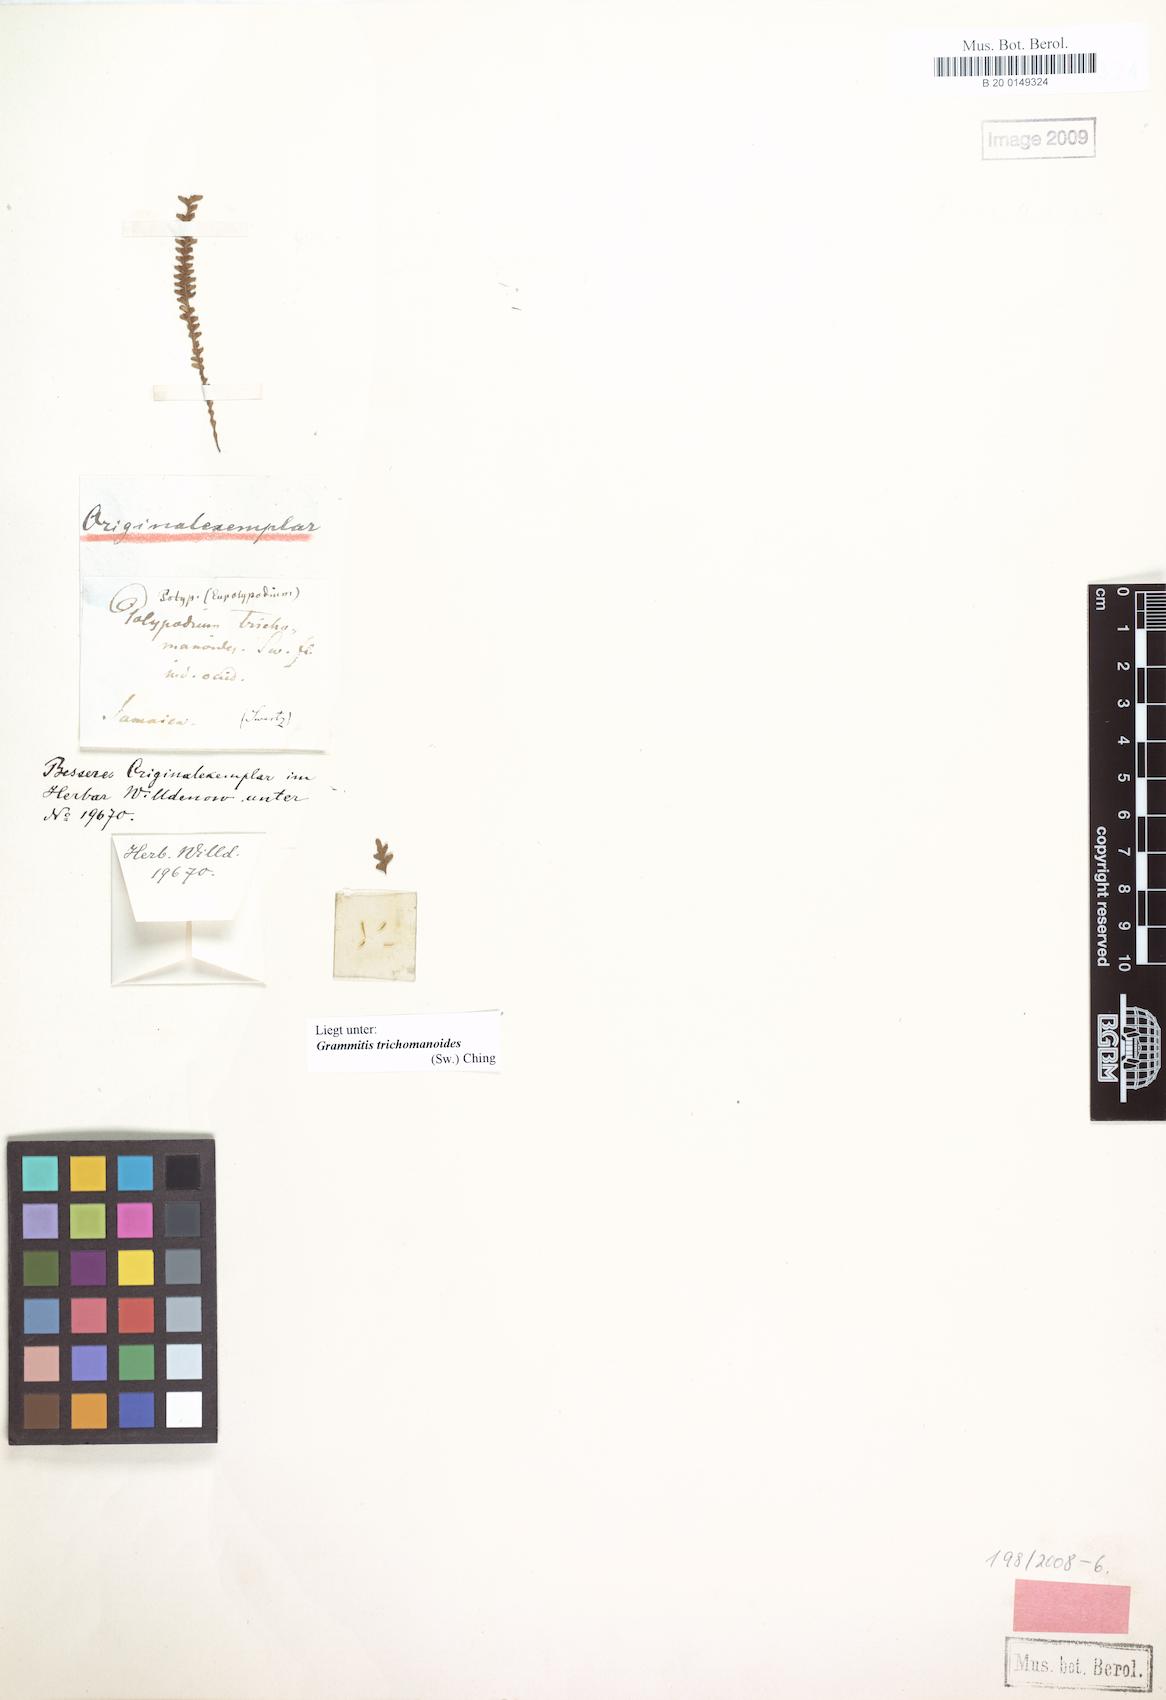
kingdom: Plantae
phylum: Tracheophyta
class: Polypodiopsida
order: Polypodiales
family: Polypodiaceae
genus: Moranopteris
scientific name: Moranopteris trichomanoides
